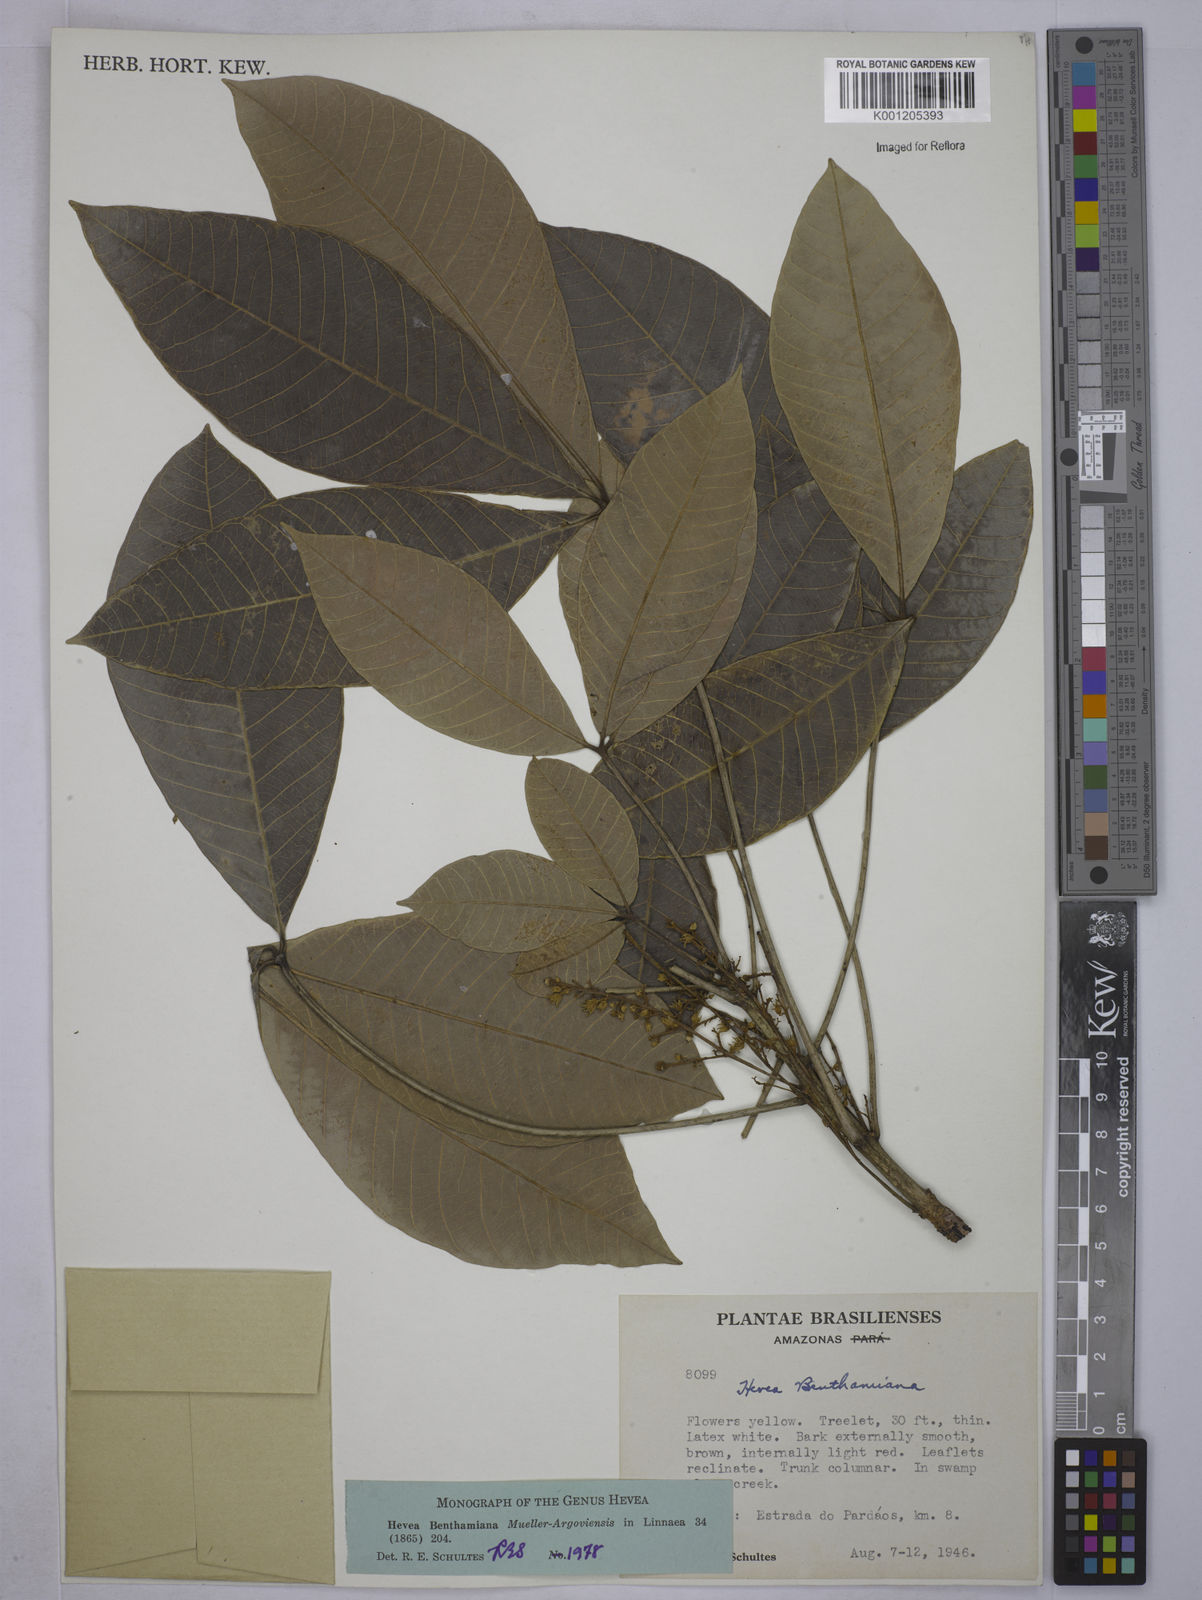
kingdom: Plantae
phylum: Tracheophyta
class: Magnoliopsida
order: Malpighiales
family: Euphorbiaceae
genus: Hevea
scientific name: Hevea
